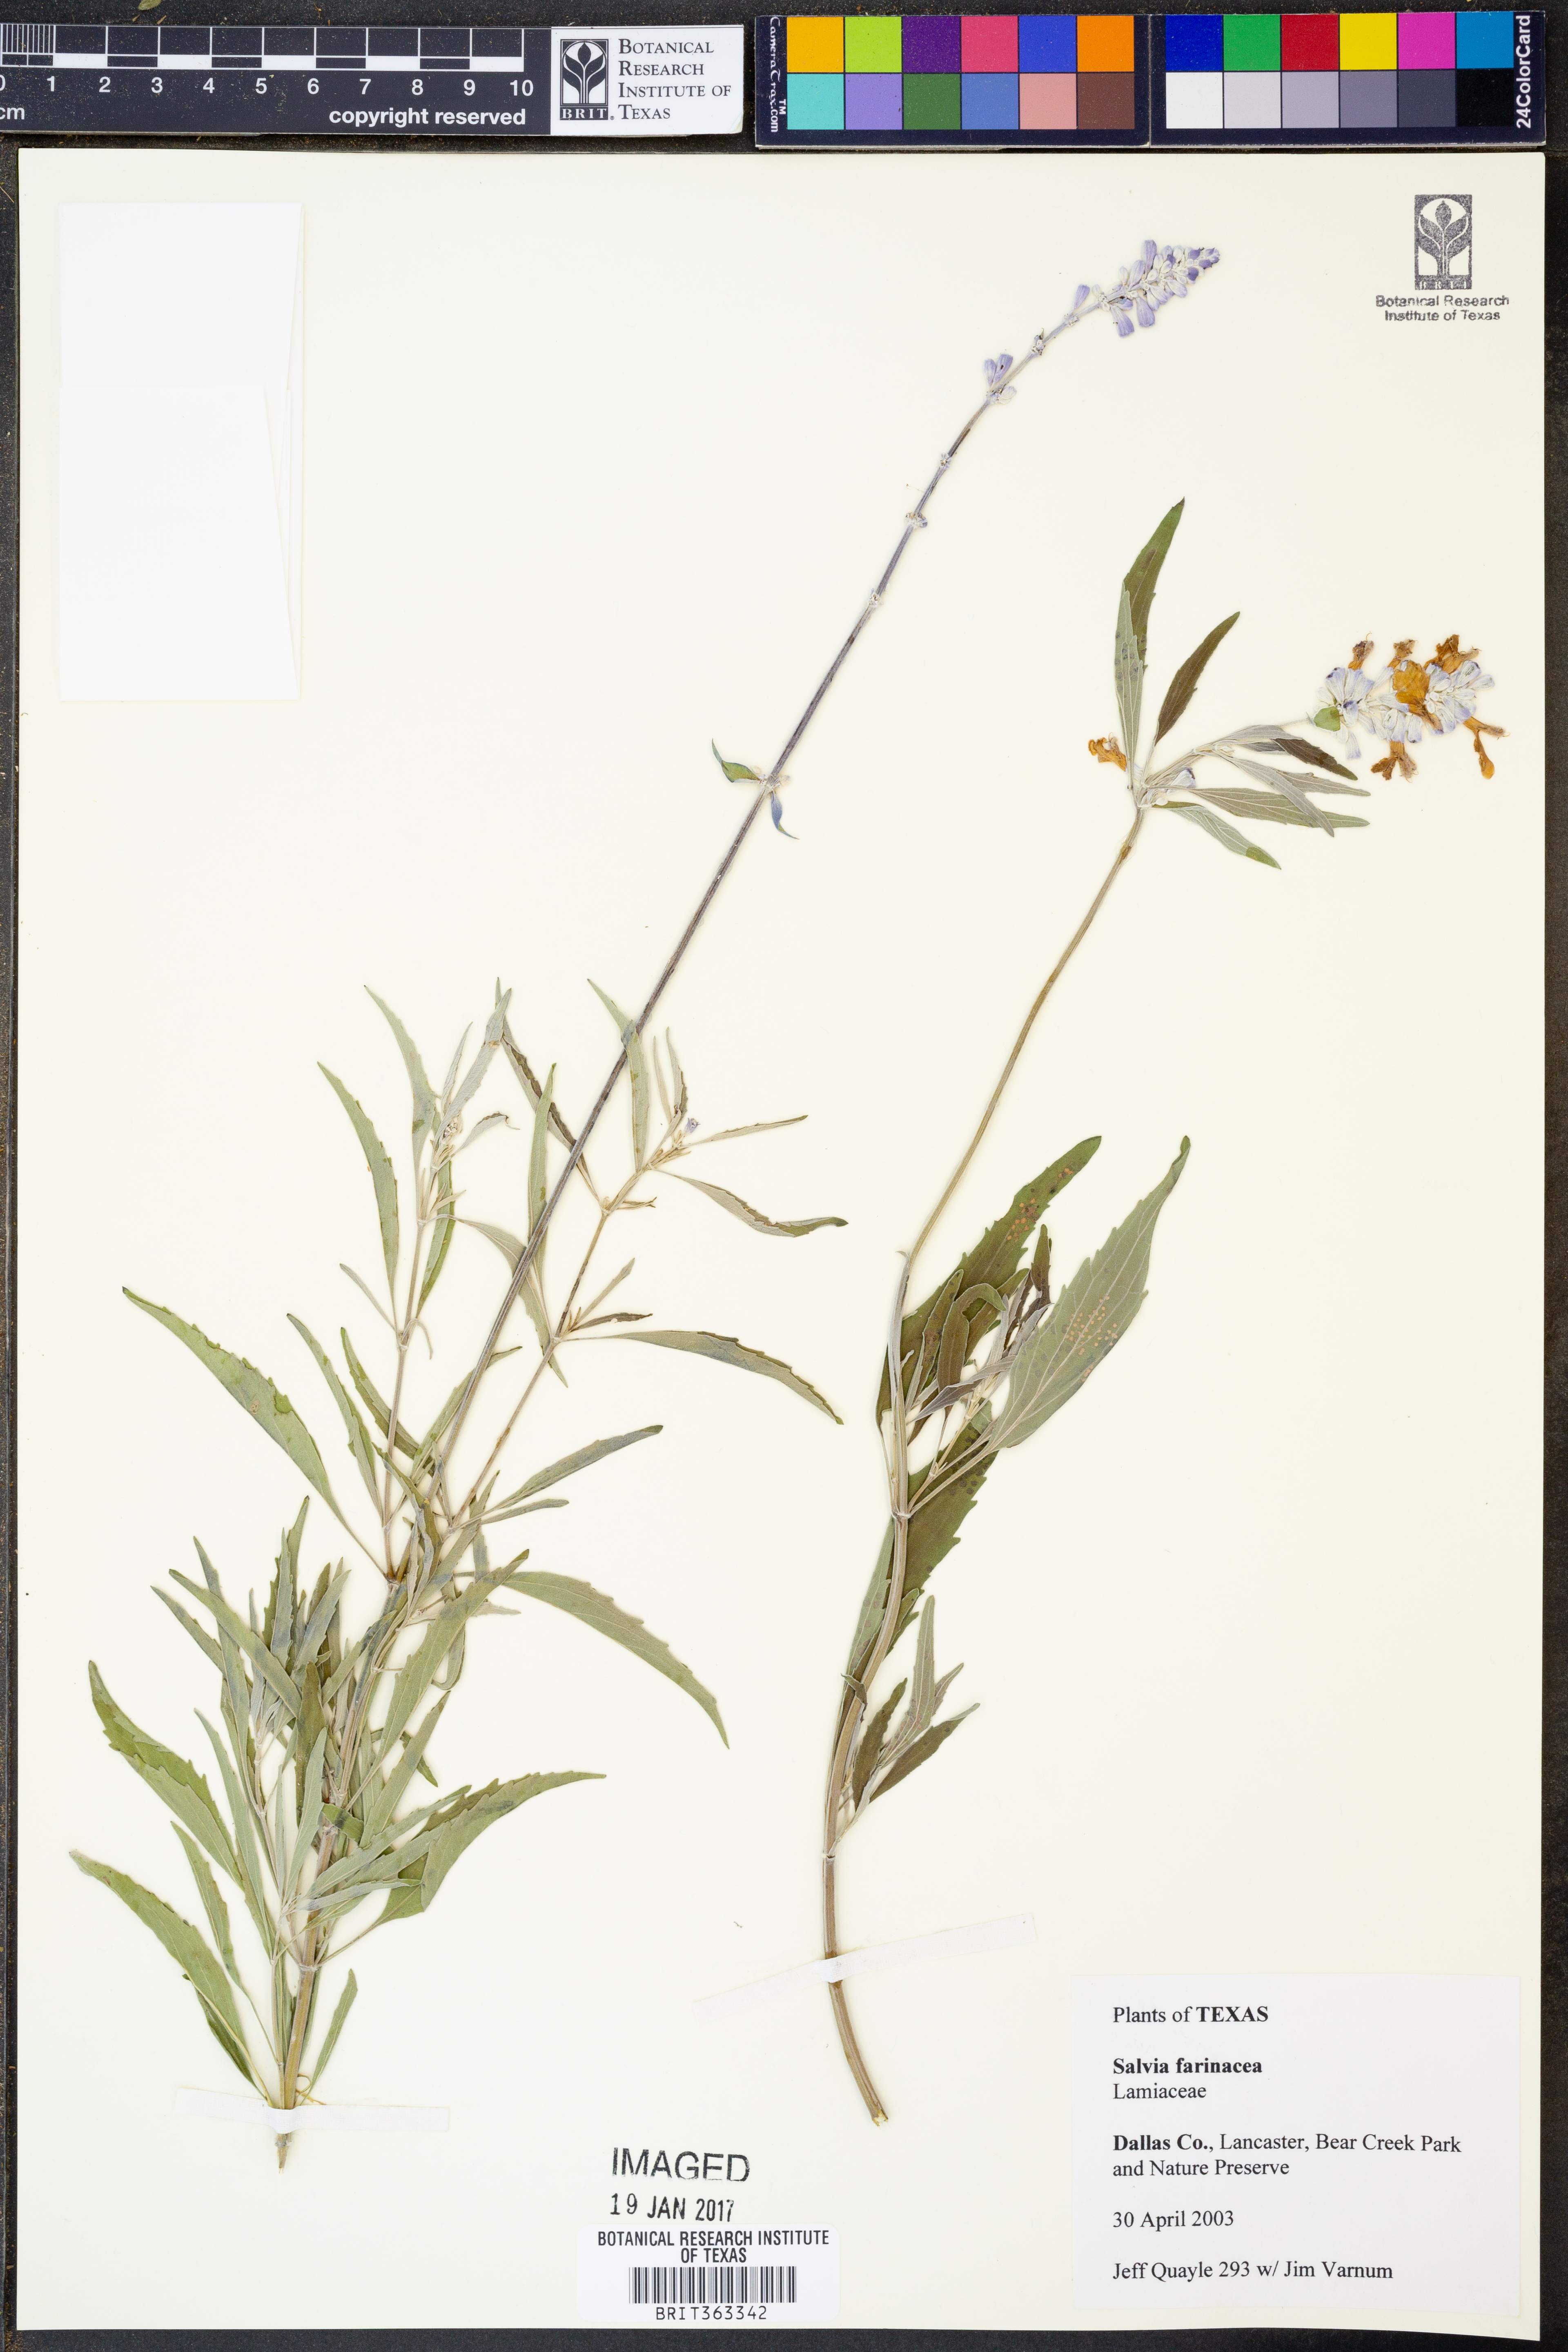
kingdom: Plantae
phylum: Tracheophyta
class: Magnoliopsida
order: Lamiales
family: Lamiaceae
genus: Salvia
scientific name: Salvia farinacea
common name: Mealy sage
